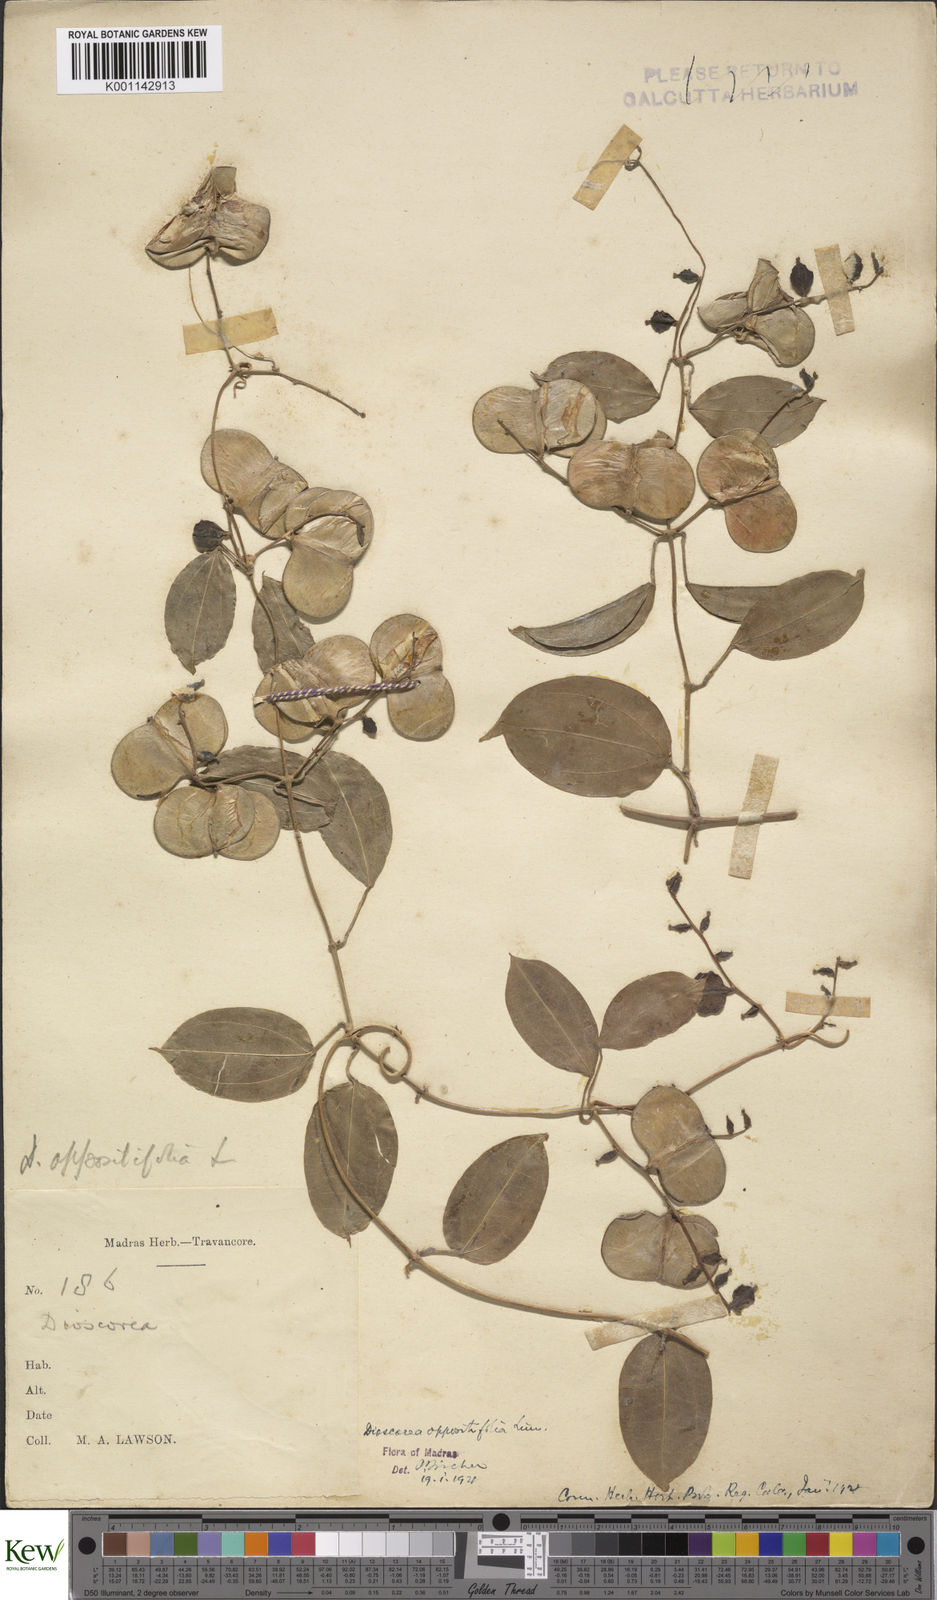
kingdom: Plantae
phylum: Tracheophyta
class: Liliopsida
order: Dioscoreales
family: Dioscoreaceae
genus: Dioscorea
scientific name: Dioscorea oppositifolia
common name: Chinese yam
